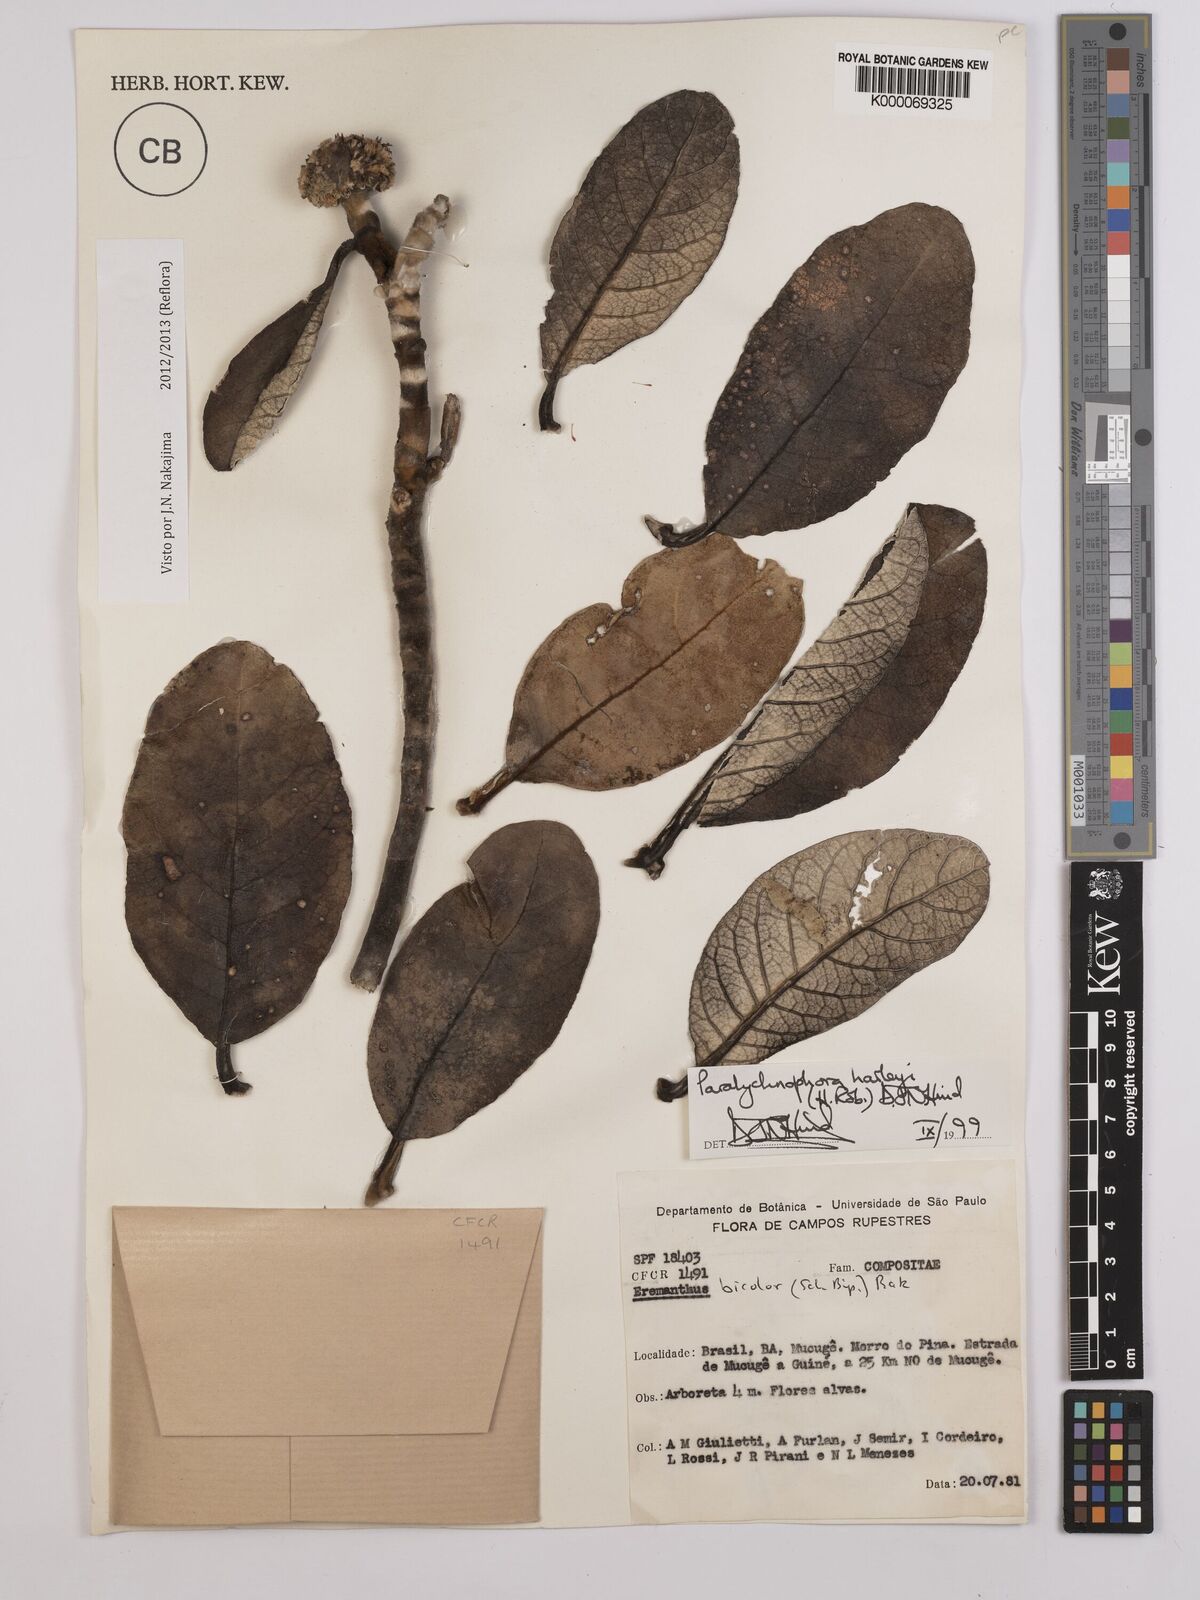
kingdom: Plantae
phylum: Tracheophyta
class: Magnoliopsida
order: Asterales
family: Asteraceae
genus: Paralychnophora
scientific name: Paralychnophora harleyi
